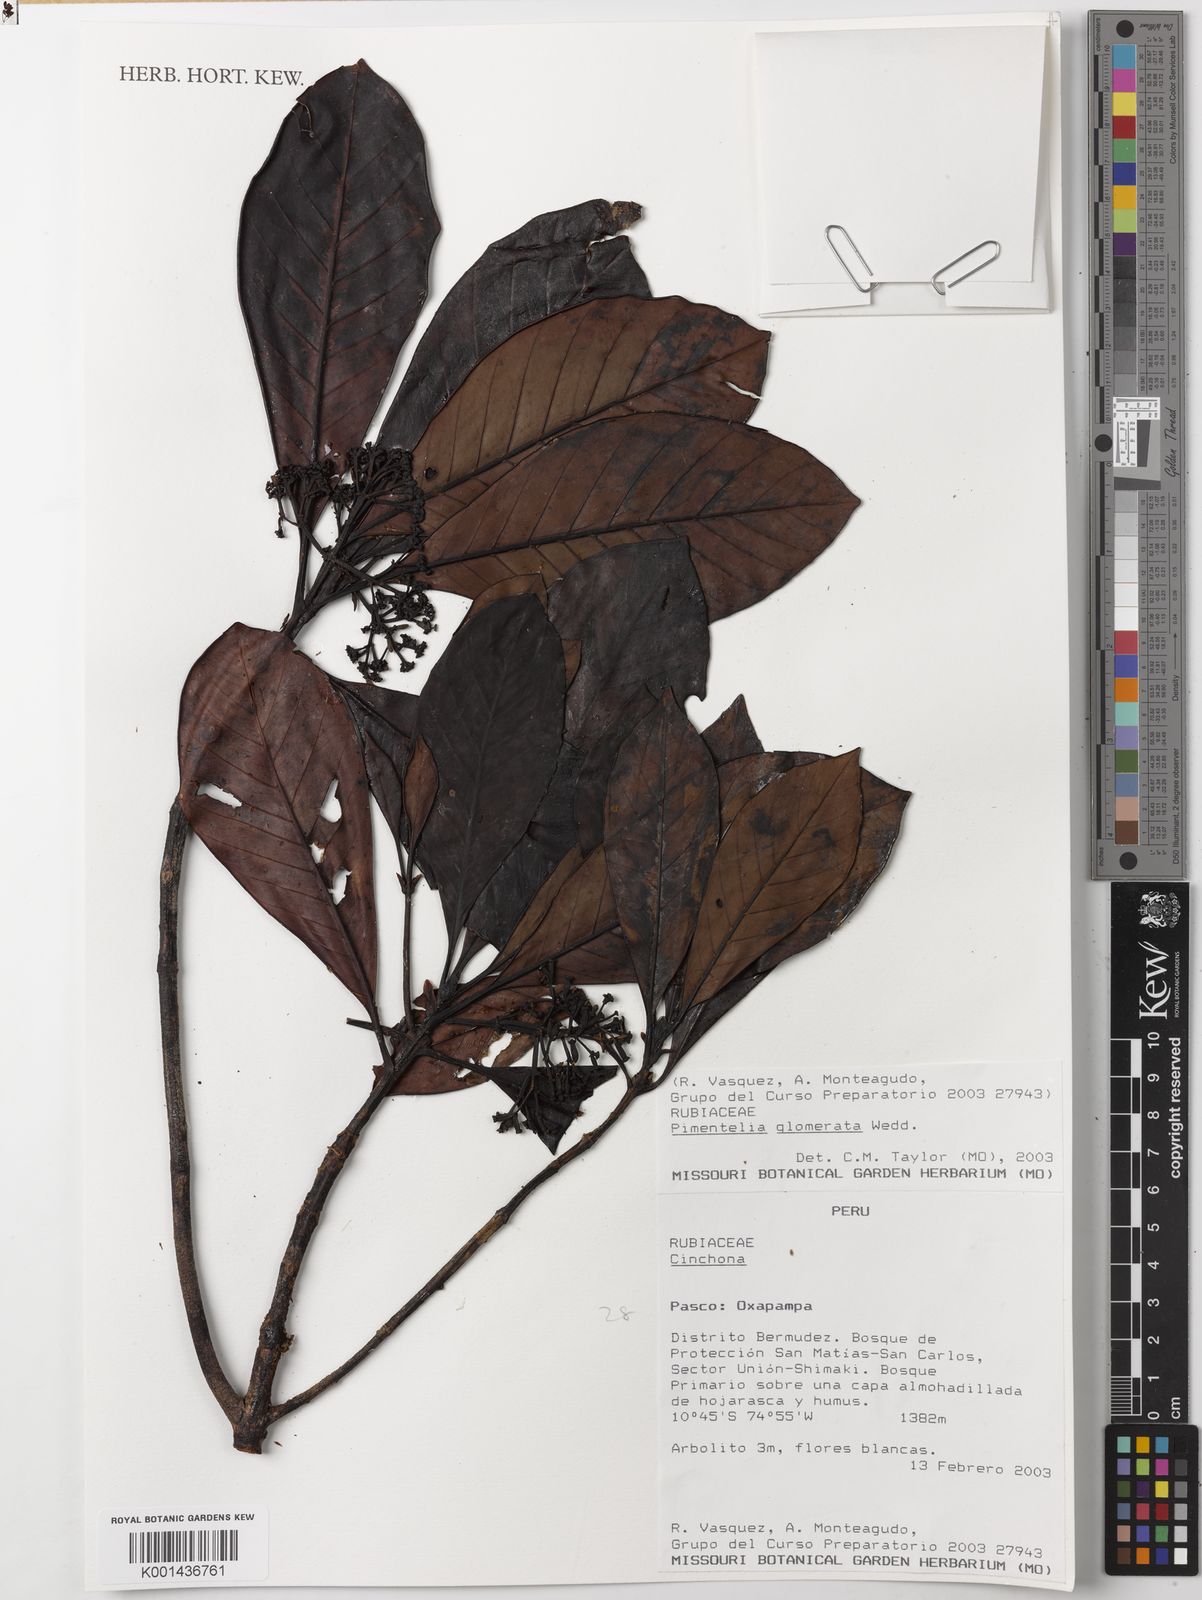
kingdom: Plantae
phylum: Tracheophyta
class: Magnoliopsida
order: Gentianales
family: Rubiaceae
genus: Pimentelia
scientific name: Pimentelia glomerata
